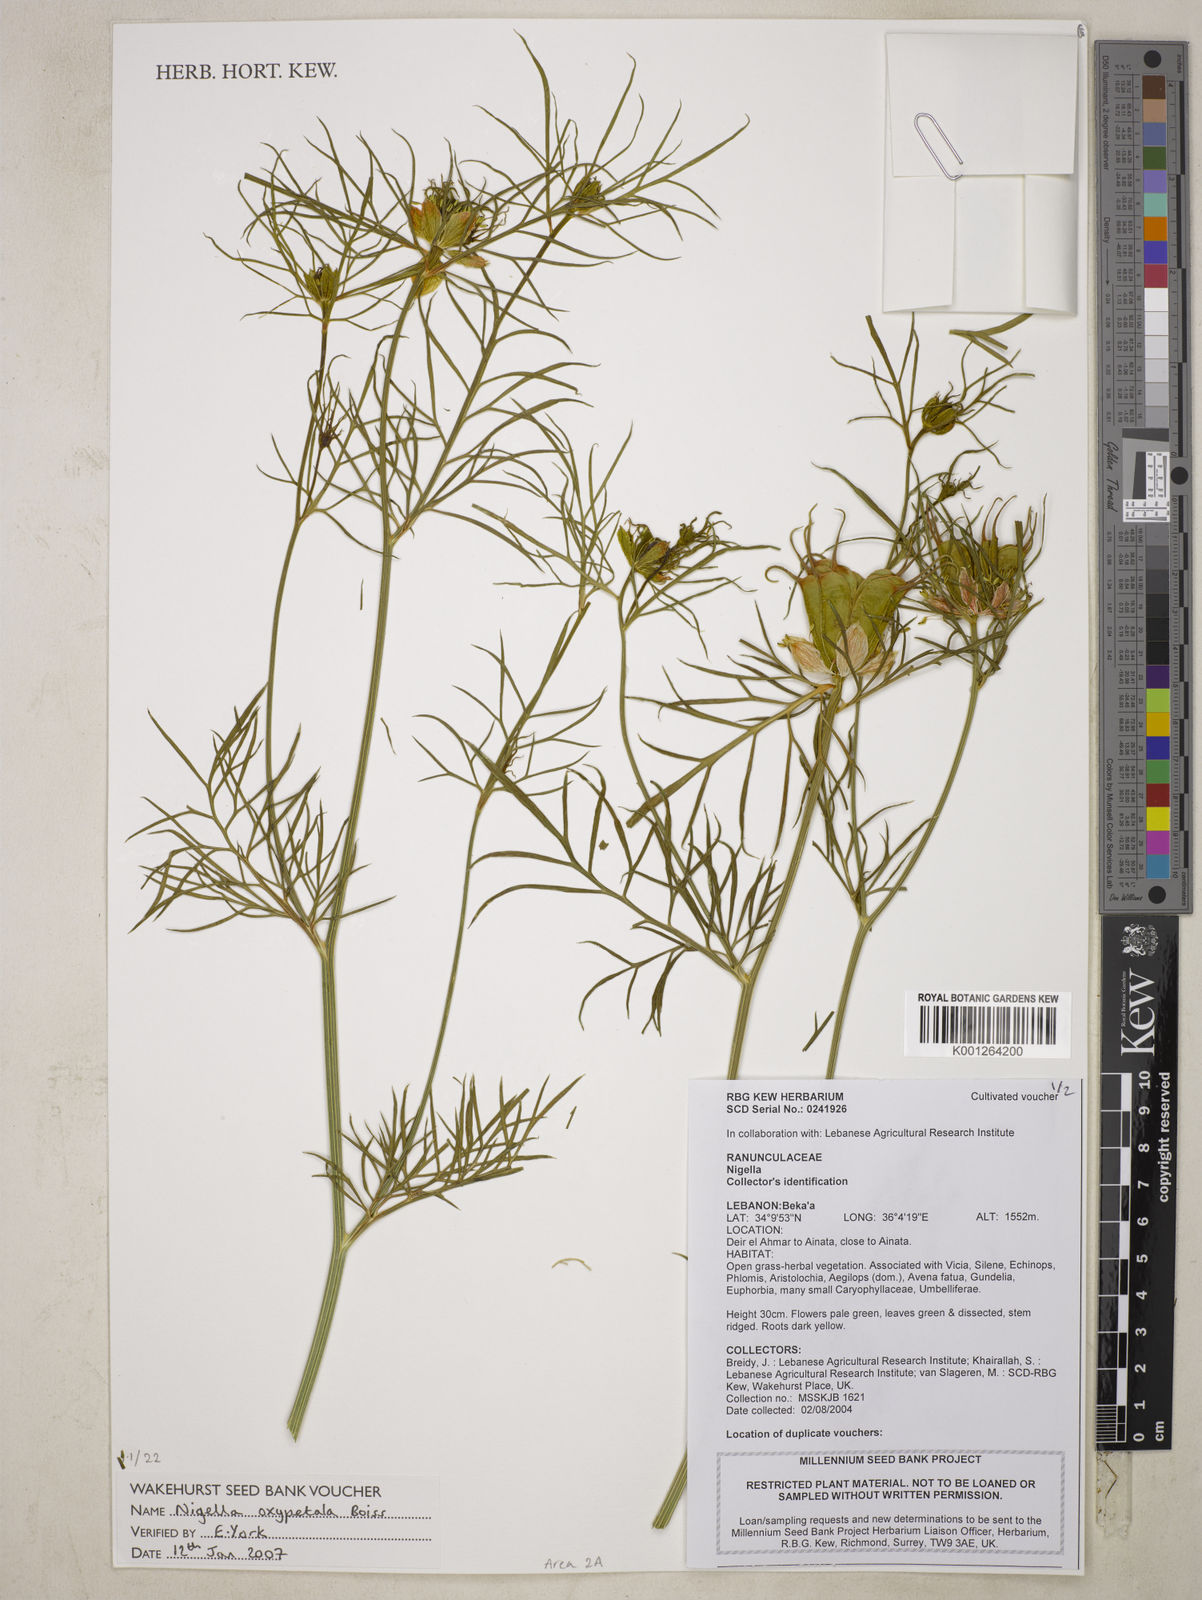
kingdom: Plantae
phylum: Tracheophyta
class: Magnoliopsida
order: Ranunculales
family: Ranunculaceae
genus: Nigella
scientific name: Nigella oxypetala
